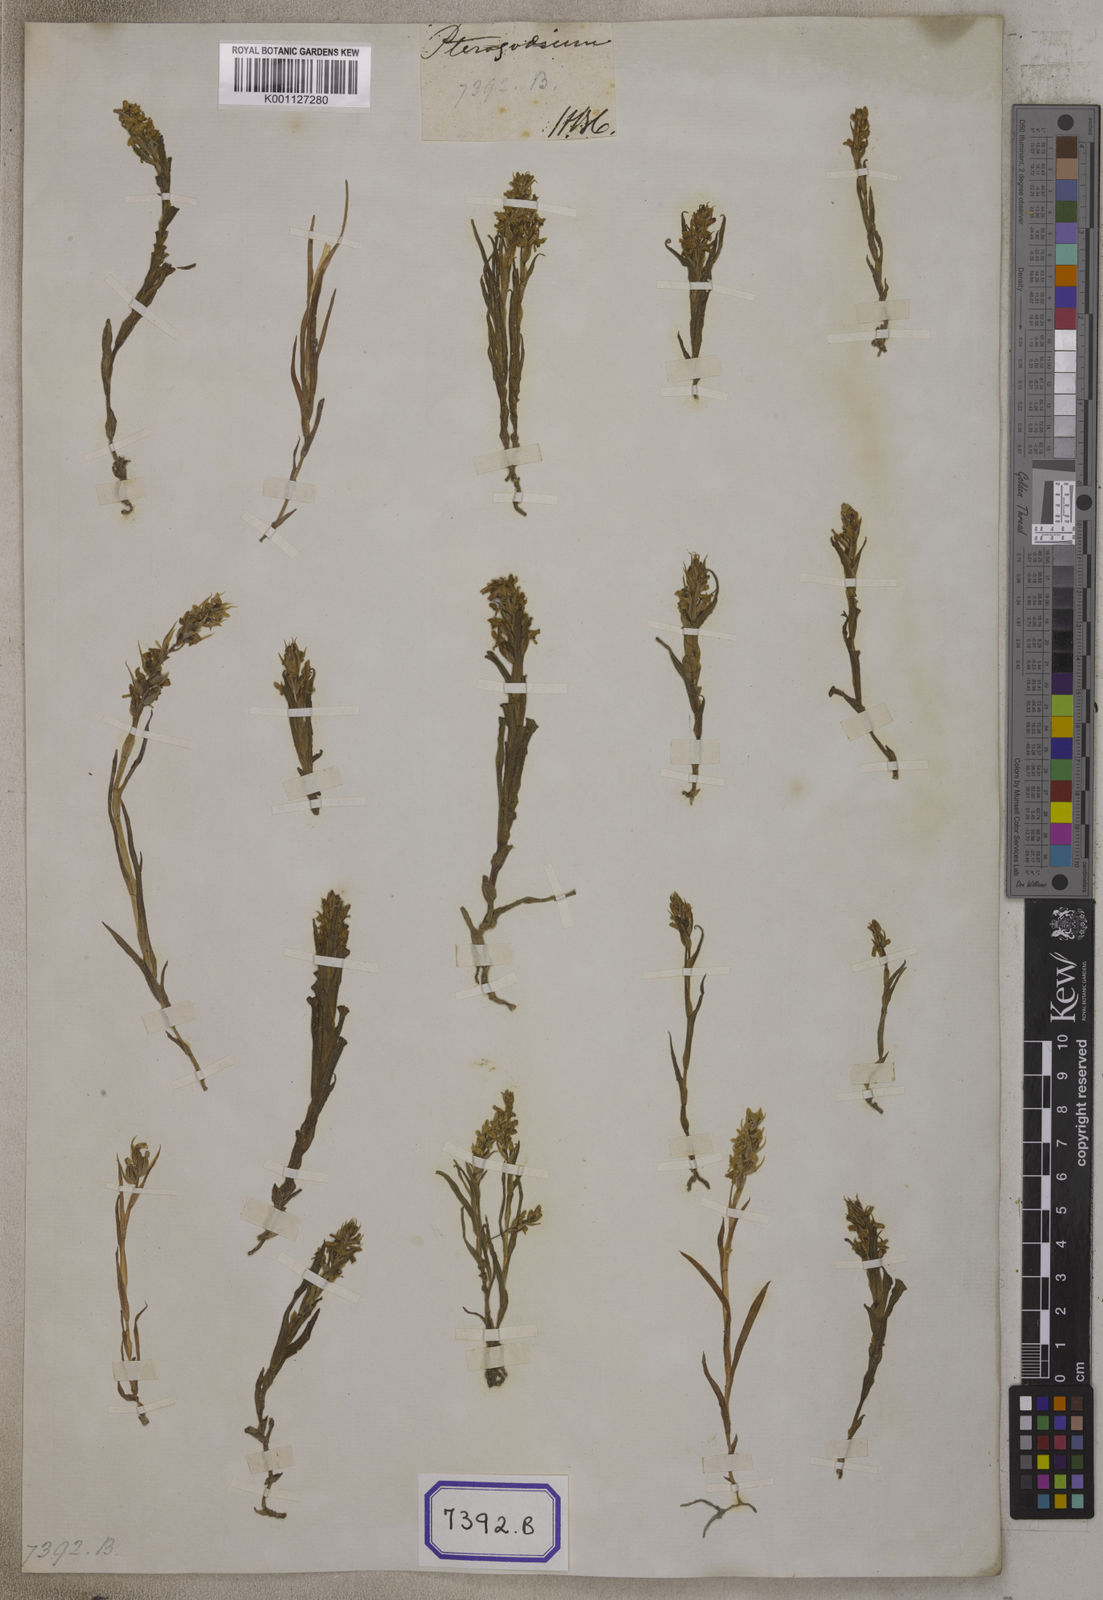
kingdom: Plantae
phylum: Tracheophyta
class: Liliopsida
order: Asparagales
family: Orchidaceae
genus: Zeuxine
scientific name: Zeuxine
